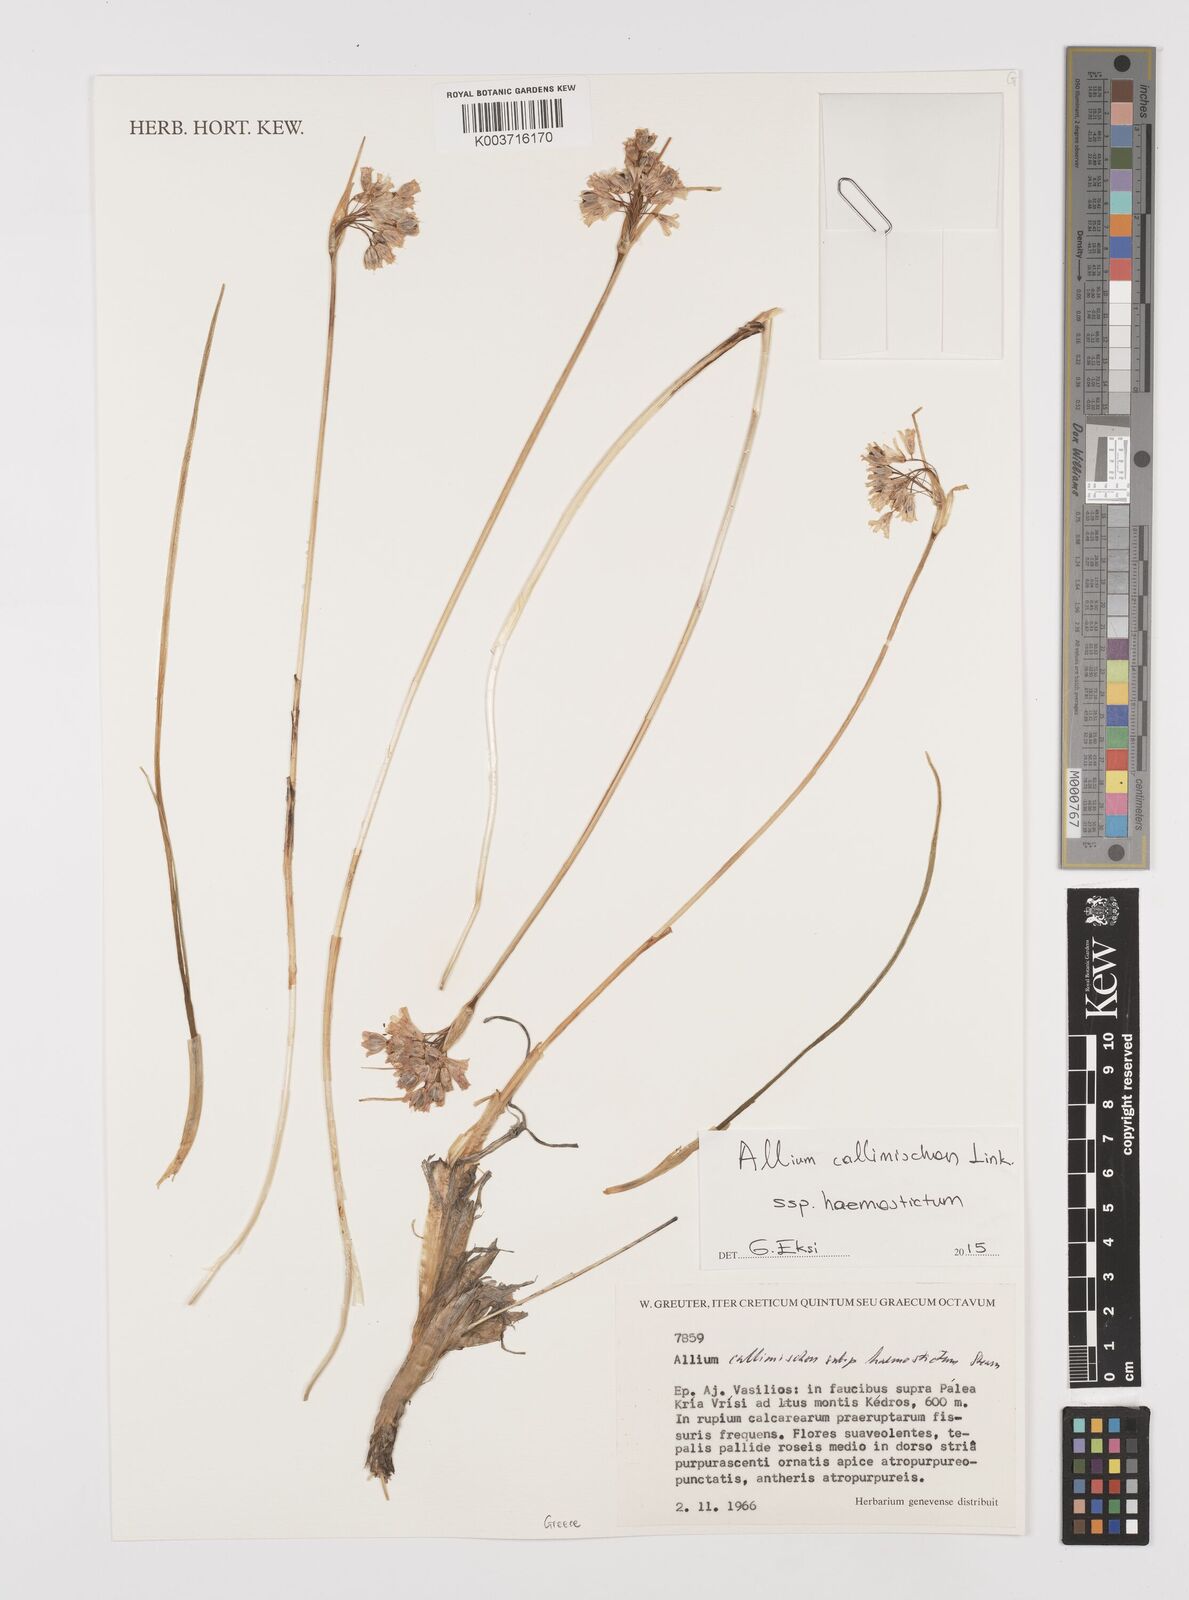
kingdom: Plantae
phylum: Tracheophyta
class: Liliopsida
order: Asparagales
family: Amaryllidaceae
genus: Allium
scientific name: Allium callimischon
